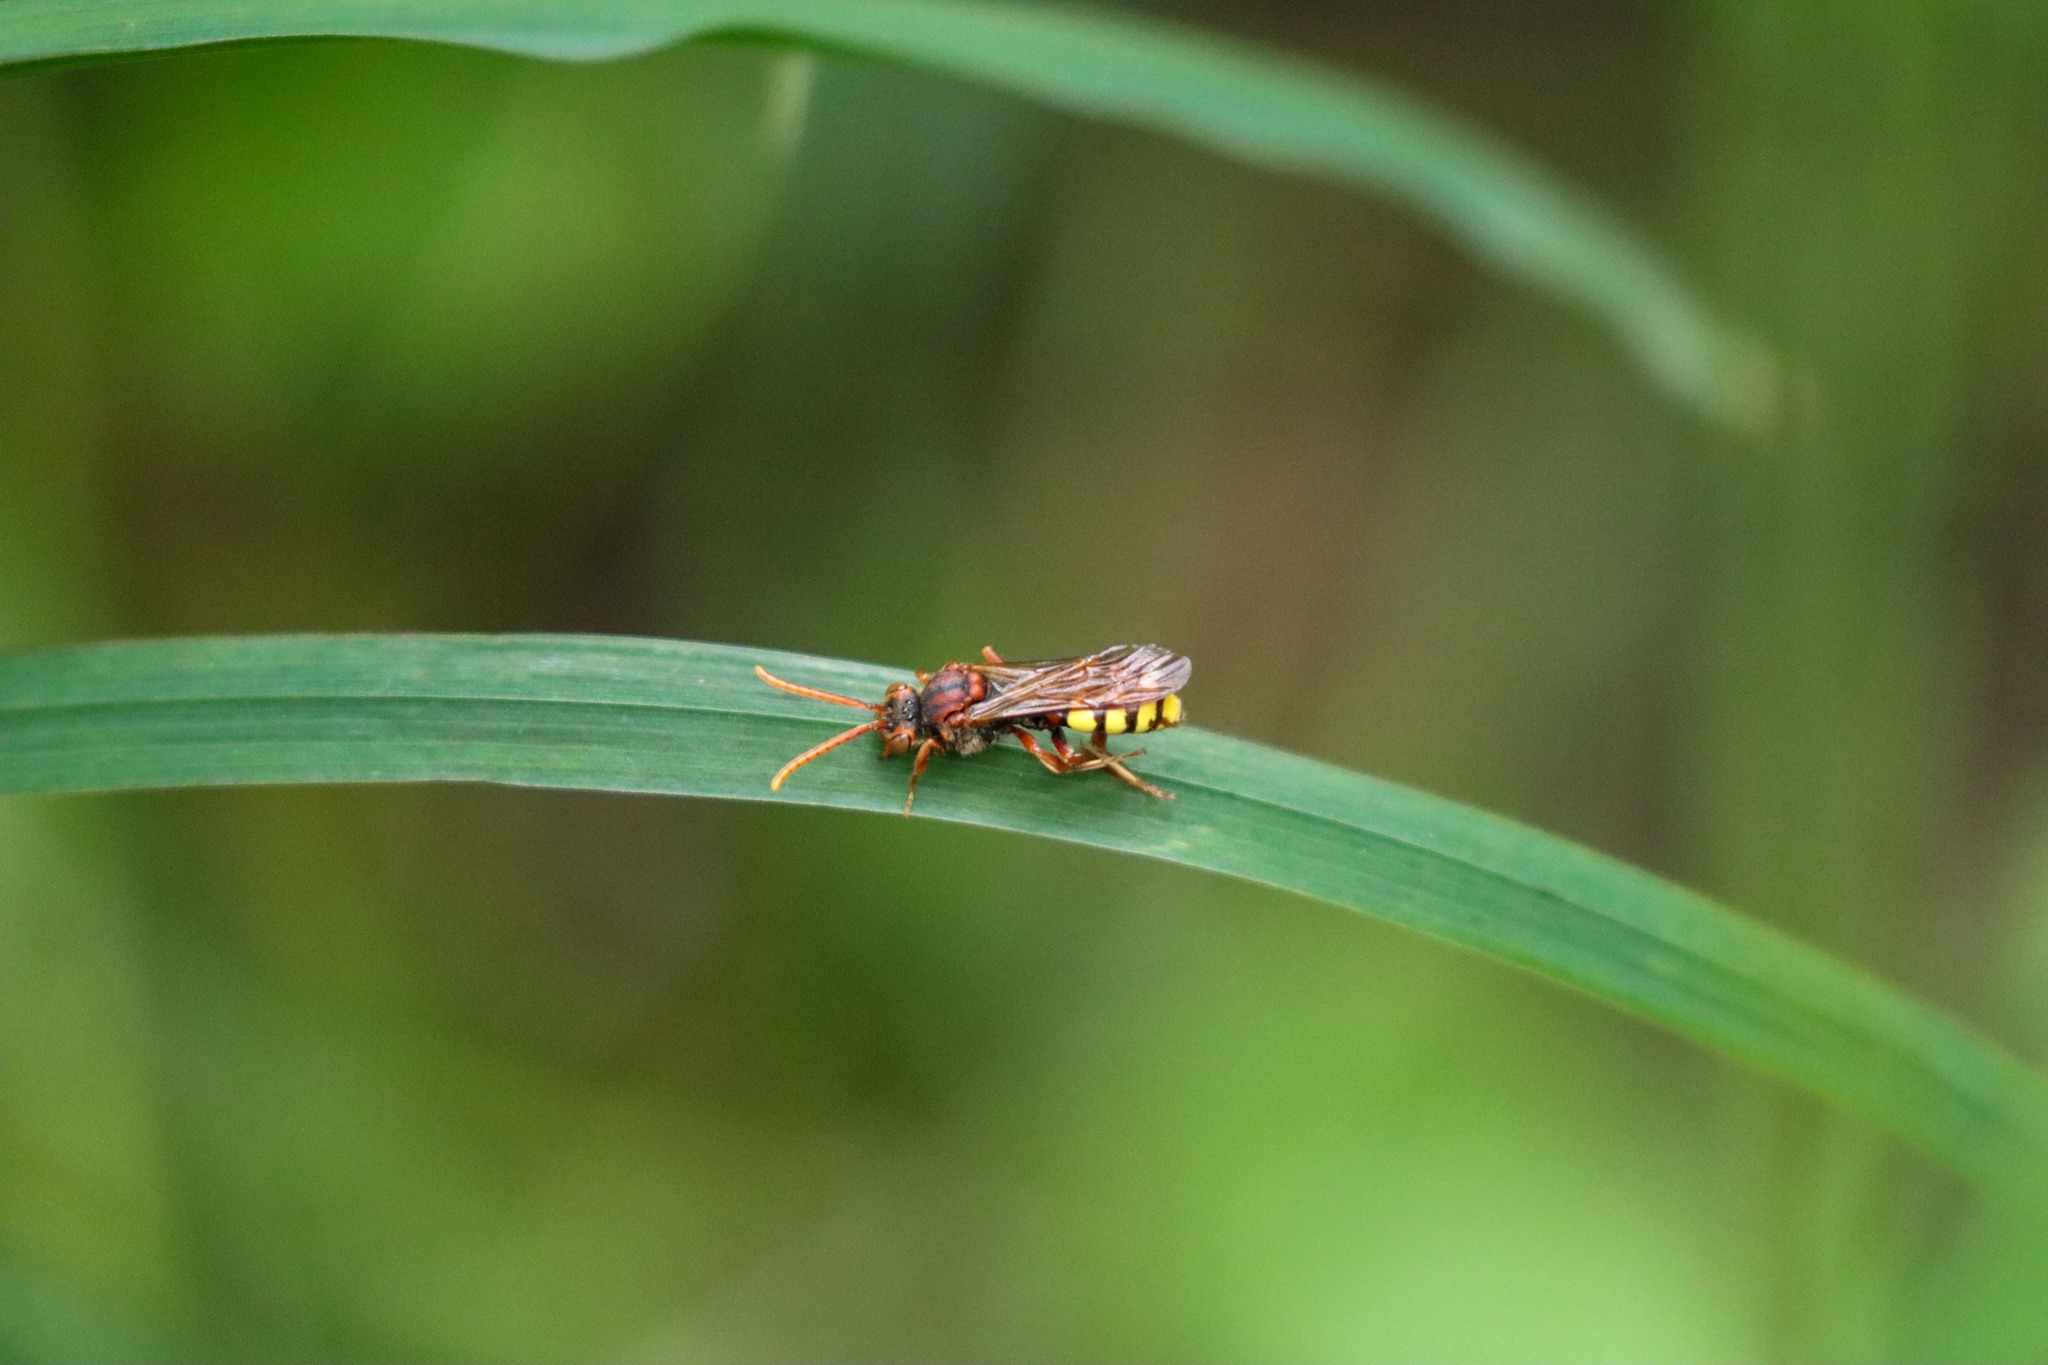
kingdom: Animalia
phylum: Arthropoda
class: Insecta
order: Hymenoptera
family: Apidae
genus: Nomada
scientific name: Nomada flava
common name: Gulbåndet hvepsebi
